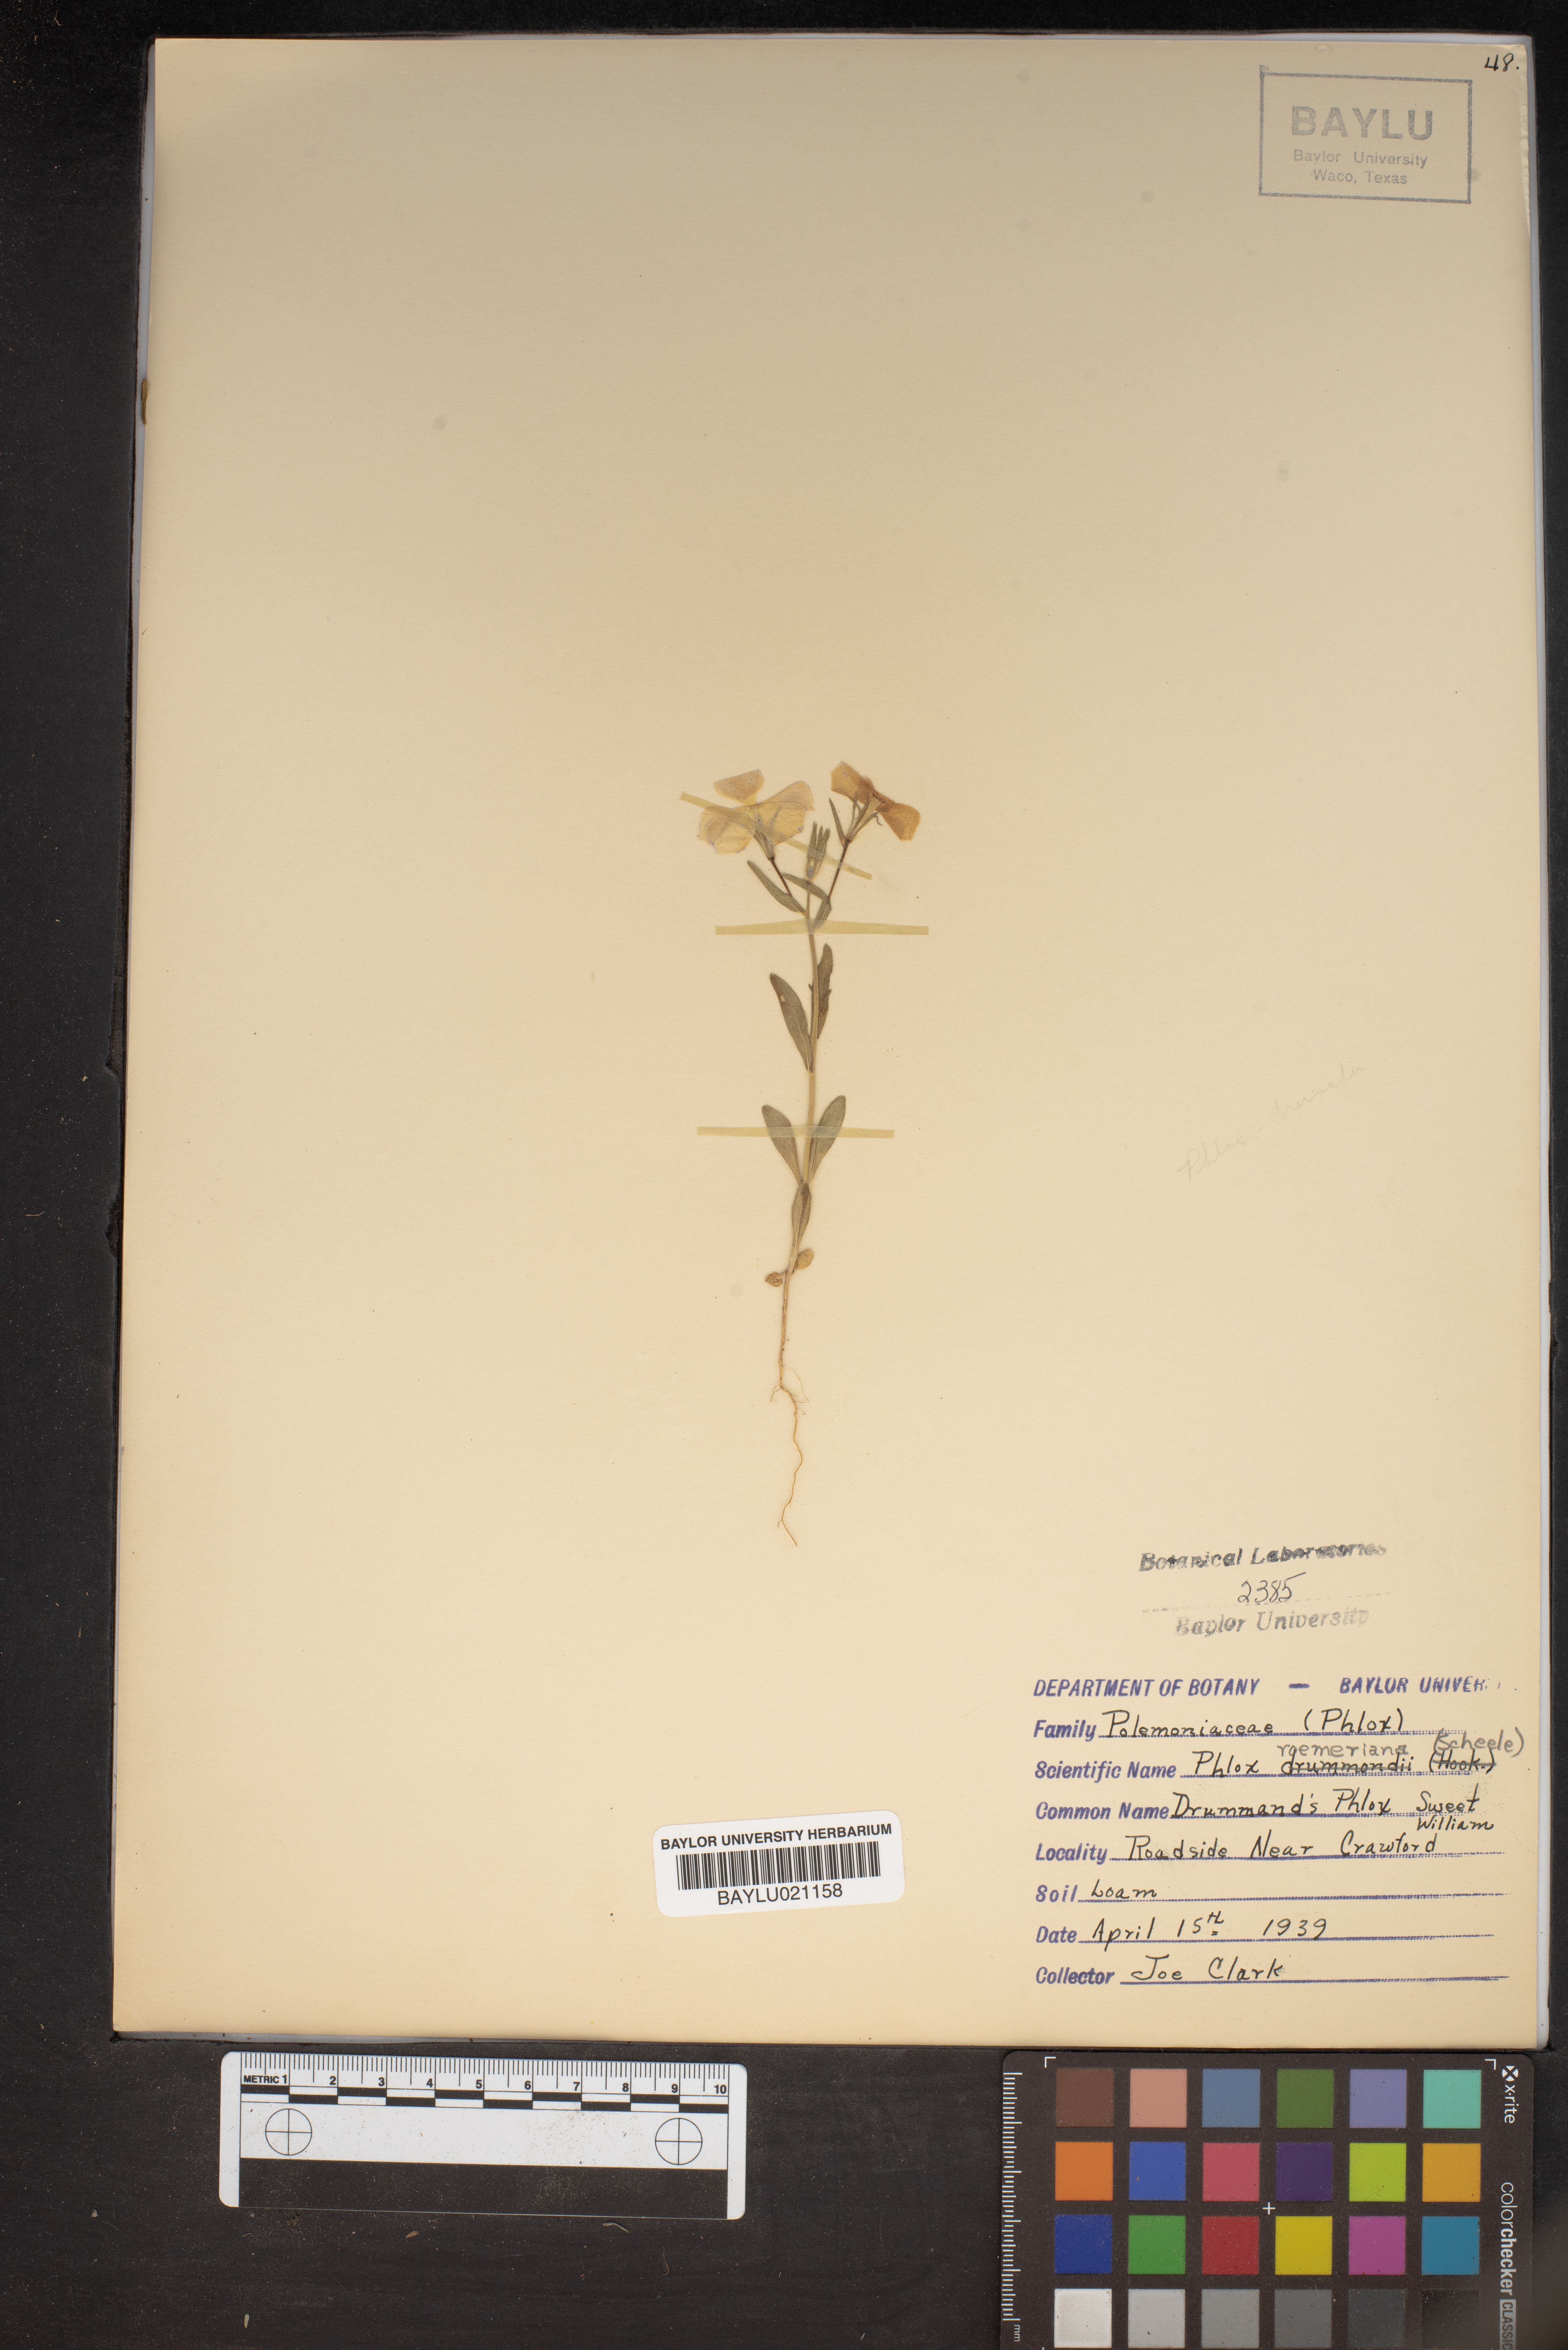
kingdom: Plantae
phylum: Tracheophyta
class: Magnoliopsida
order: Ericales
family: Polemoniaceae
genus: Phlox
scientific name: Phlox roemeriana
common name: Roemer's phlox
